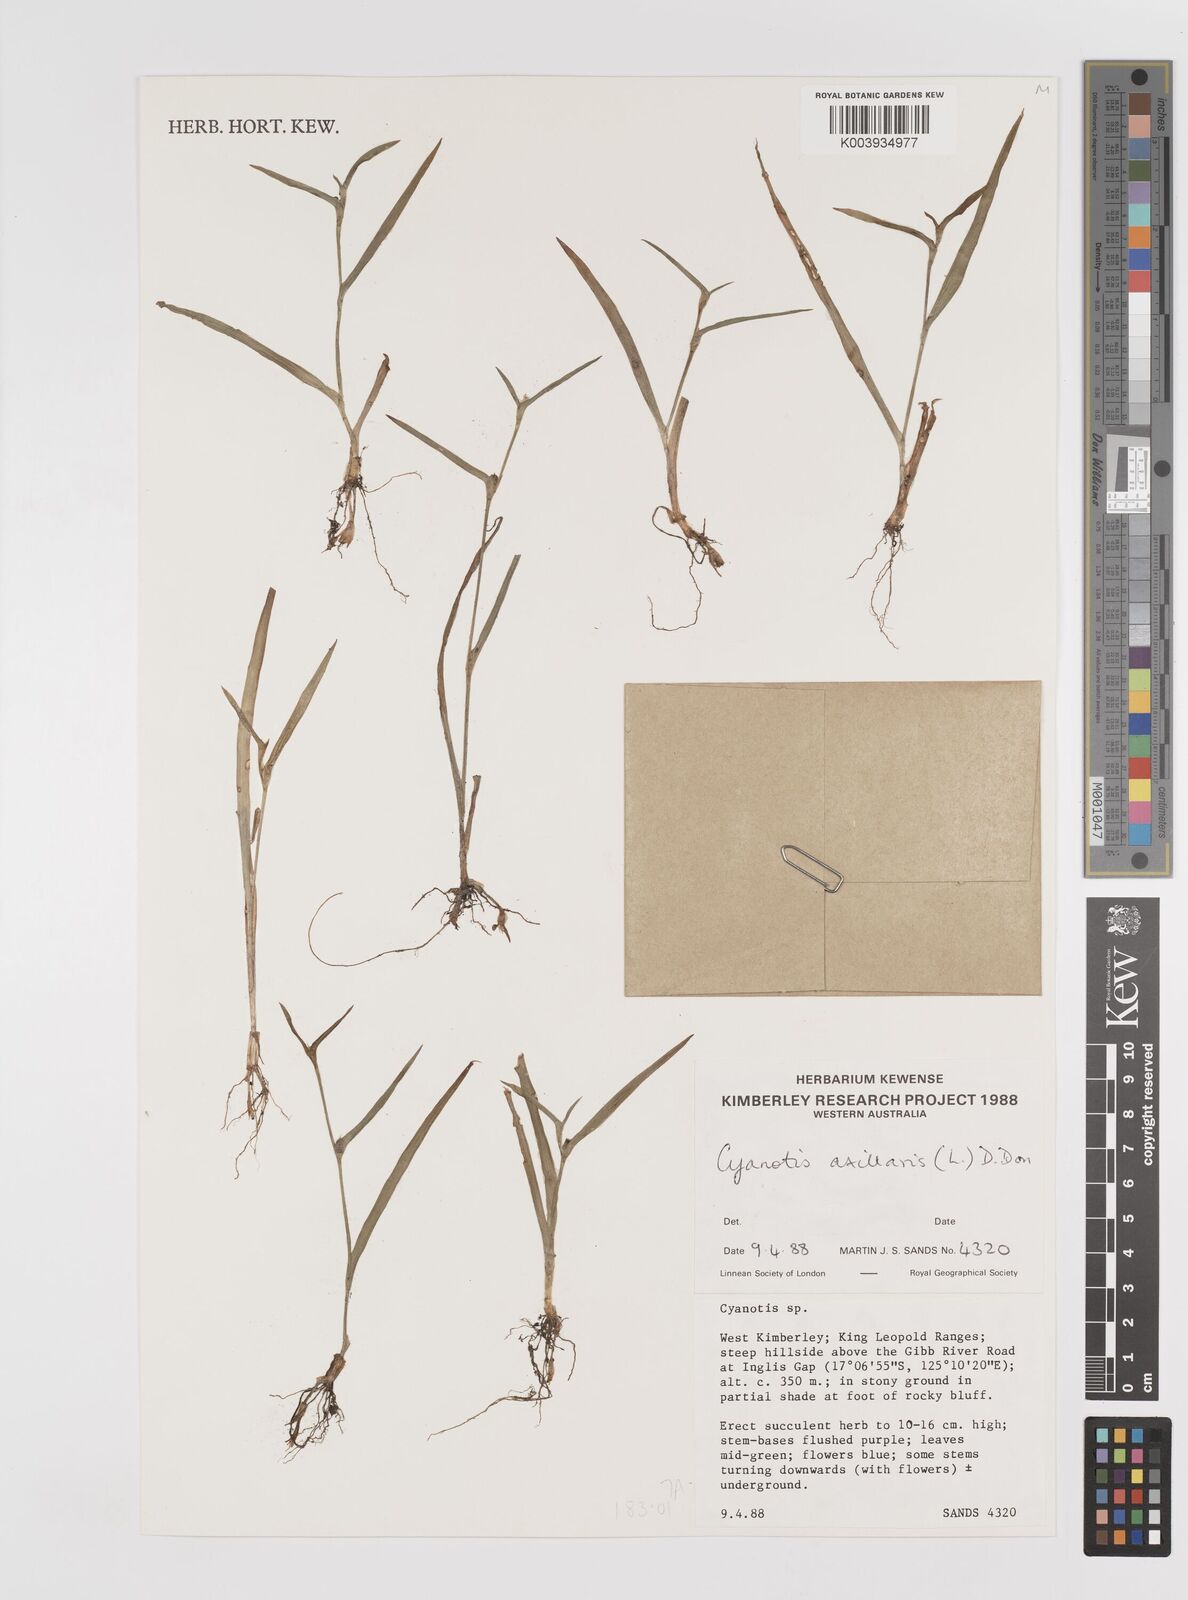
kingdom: Plantae
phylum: Tracheophyta
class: Liliopsida
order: Commelinales
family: Commelinaceae
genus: Cyanotis
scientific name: Cyanotis axillaris
